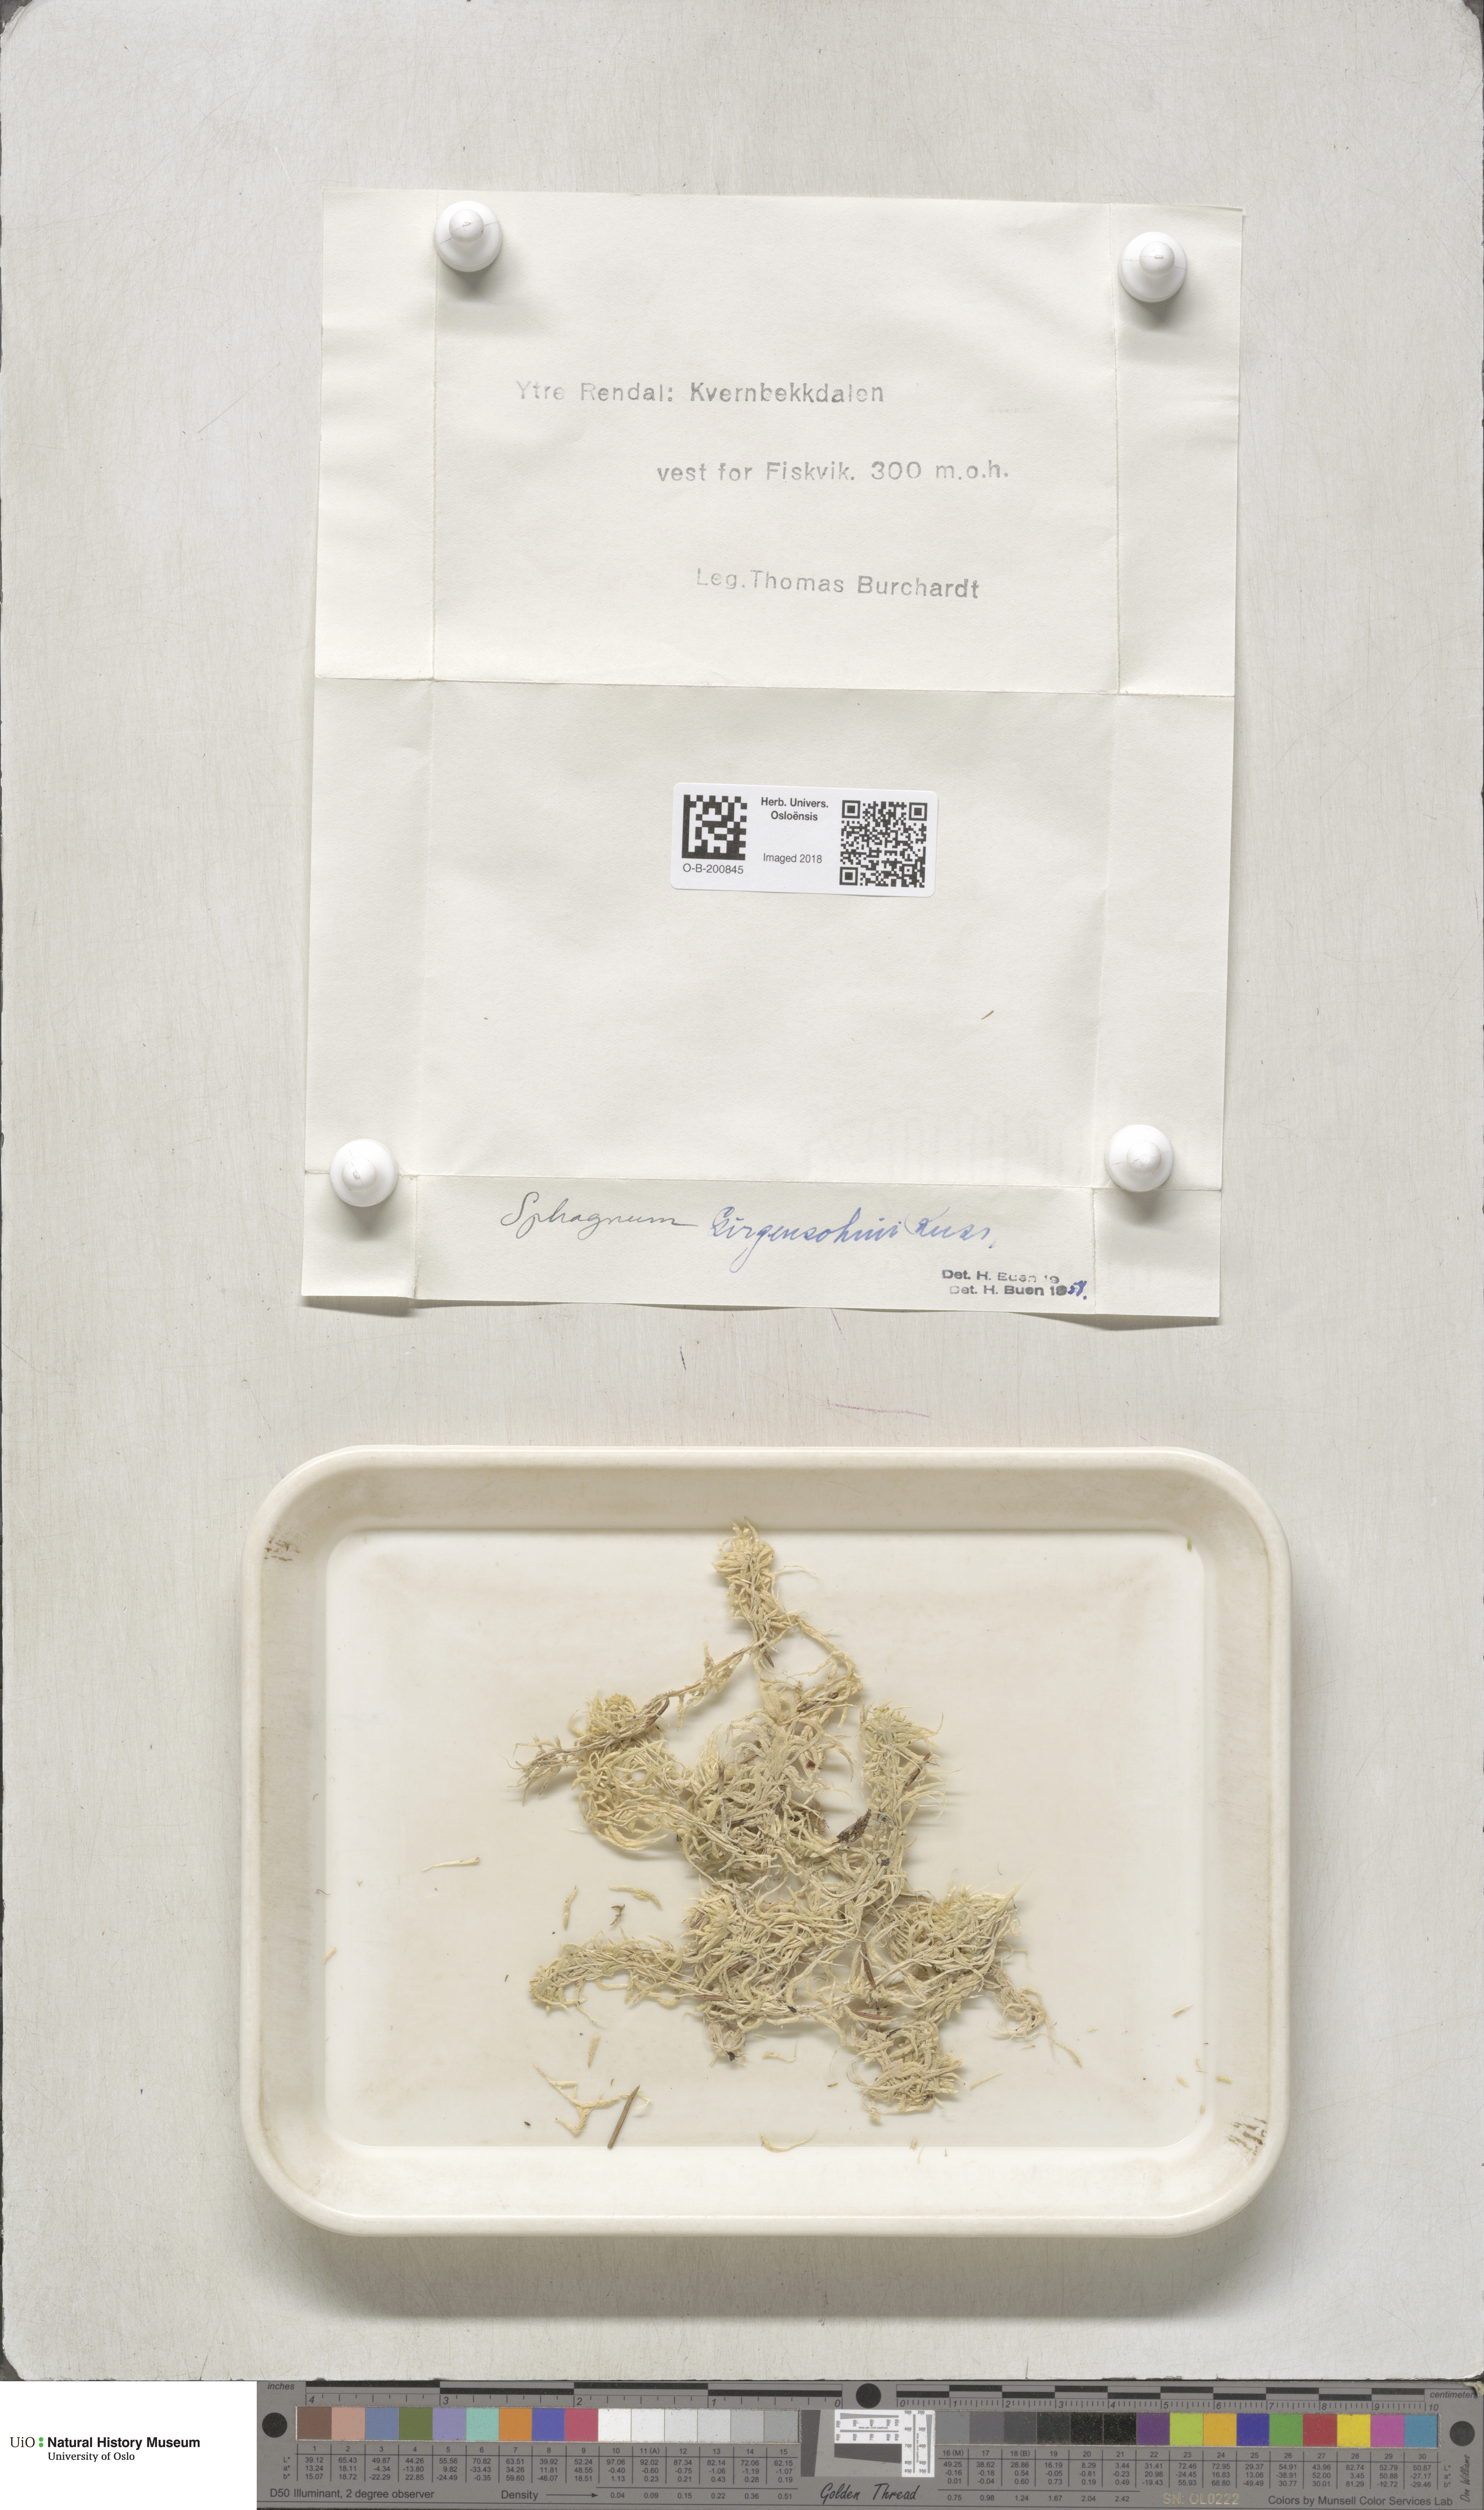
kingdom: Plantae
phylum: Bryophyta
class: Sphagnopsida
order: Sphagnales
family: Sphagnaceae
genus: Sphagnum
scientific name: Sphagnum girgensohnii
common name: Girgensohn's peat moss
